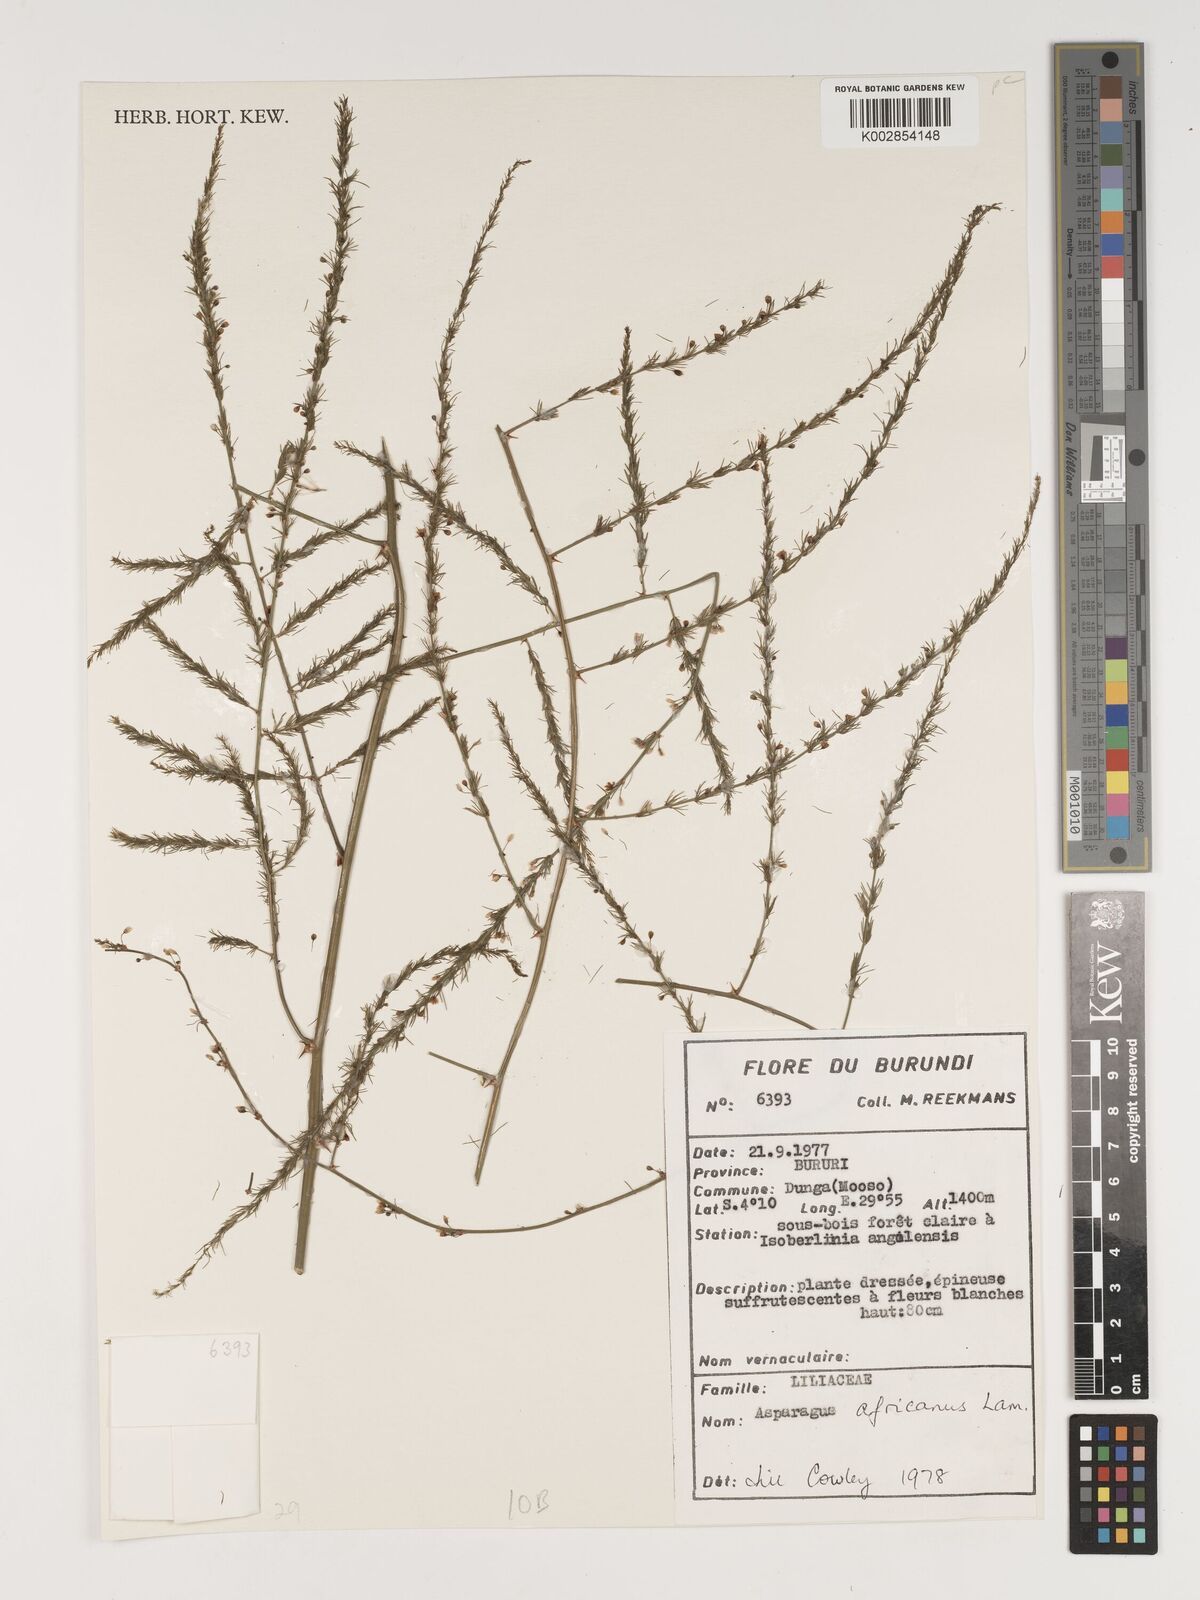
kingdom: Plantae
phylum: Tracheophyta
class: Liliopsida
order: Asparagales
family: Asparagaceae
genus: Asparagus
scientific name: Asparagus africanus
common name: Asparagus-fern
